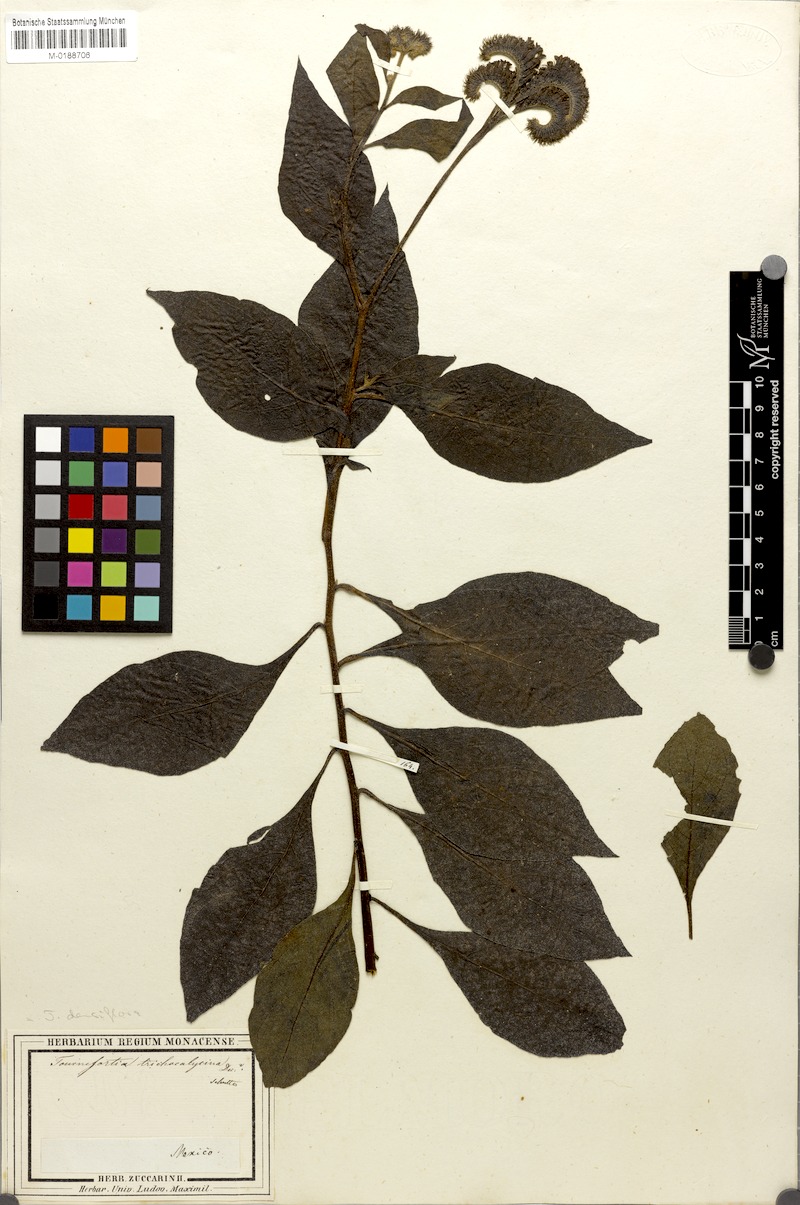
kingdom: Plantae
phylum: Tracheophyta
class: Magnoliopsida
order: Boraginales
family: Heliotropiaceae
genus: Tournefortia
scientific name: Tournefortia mutabilis
